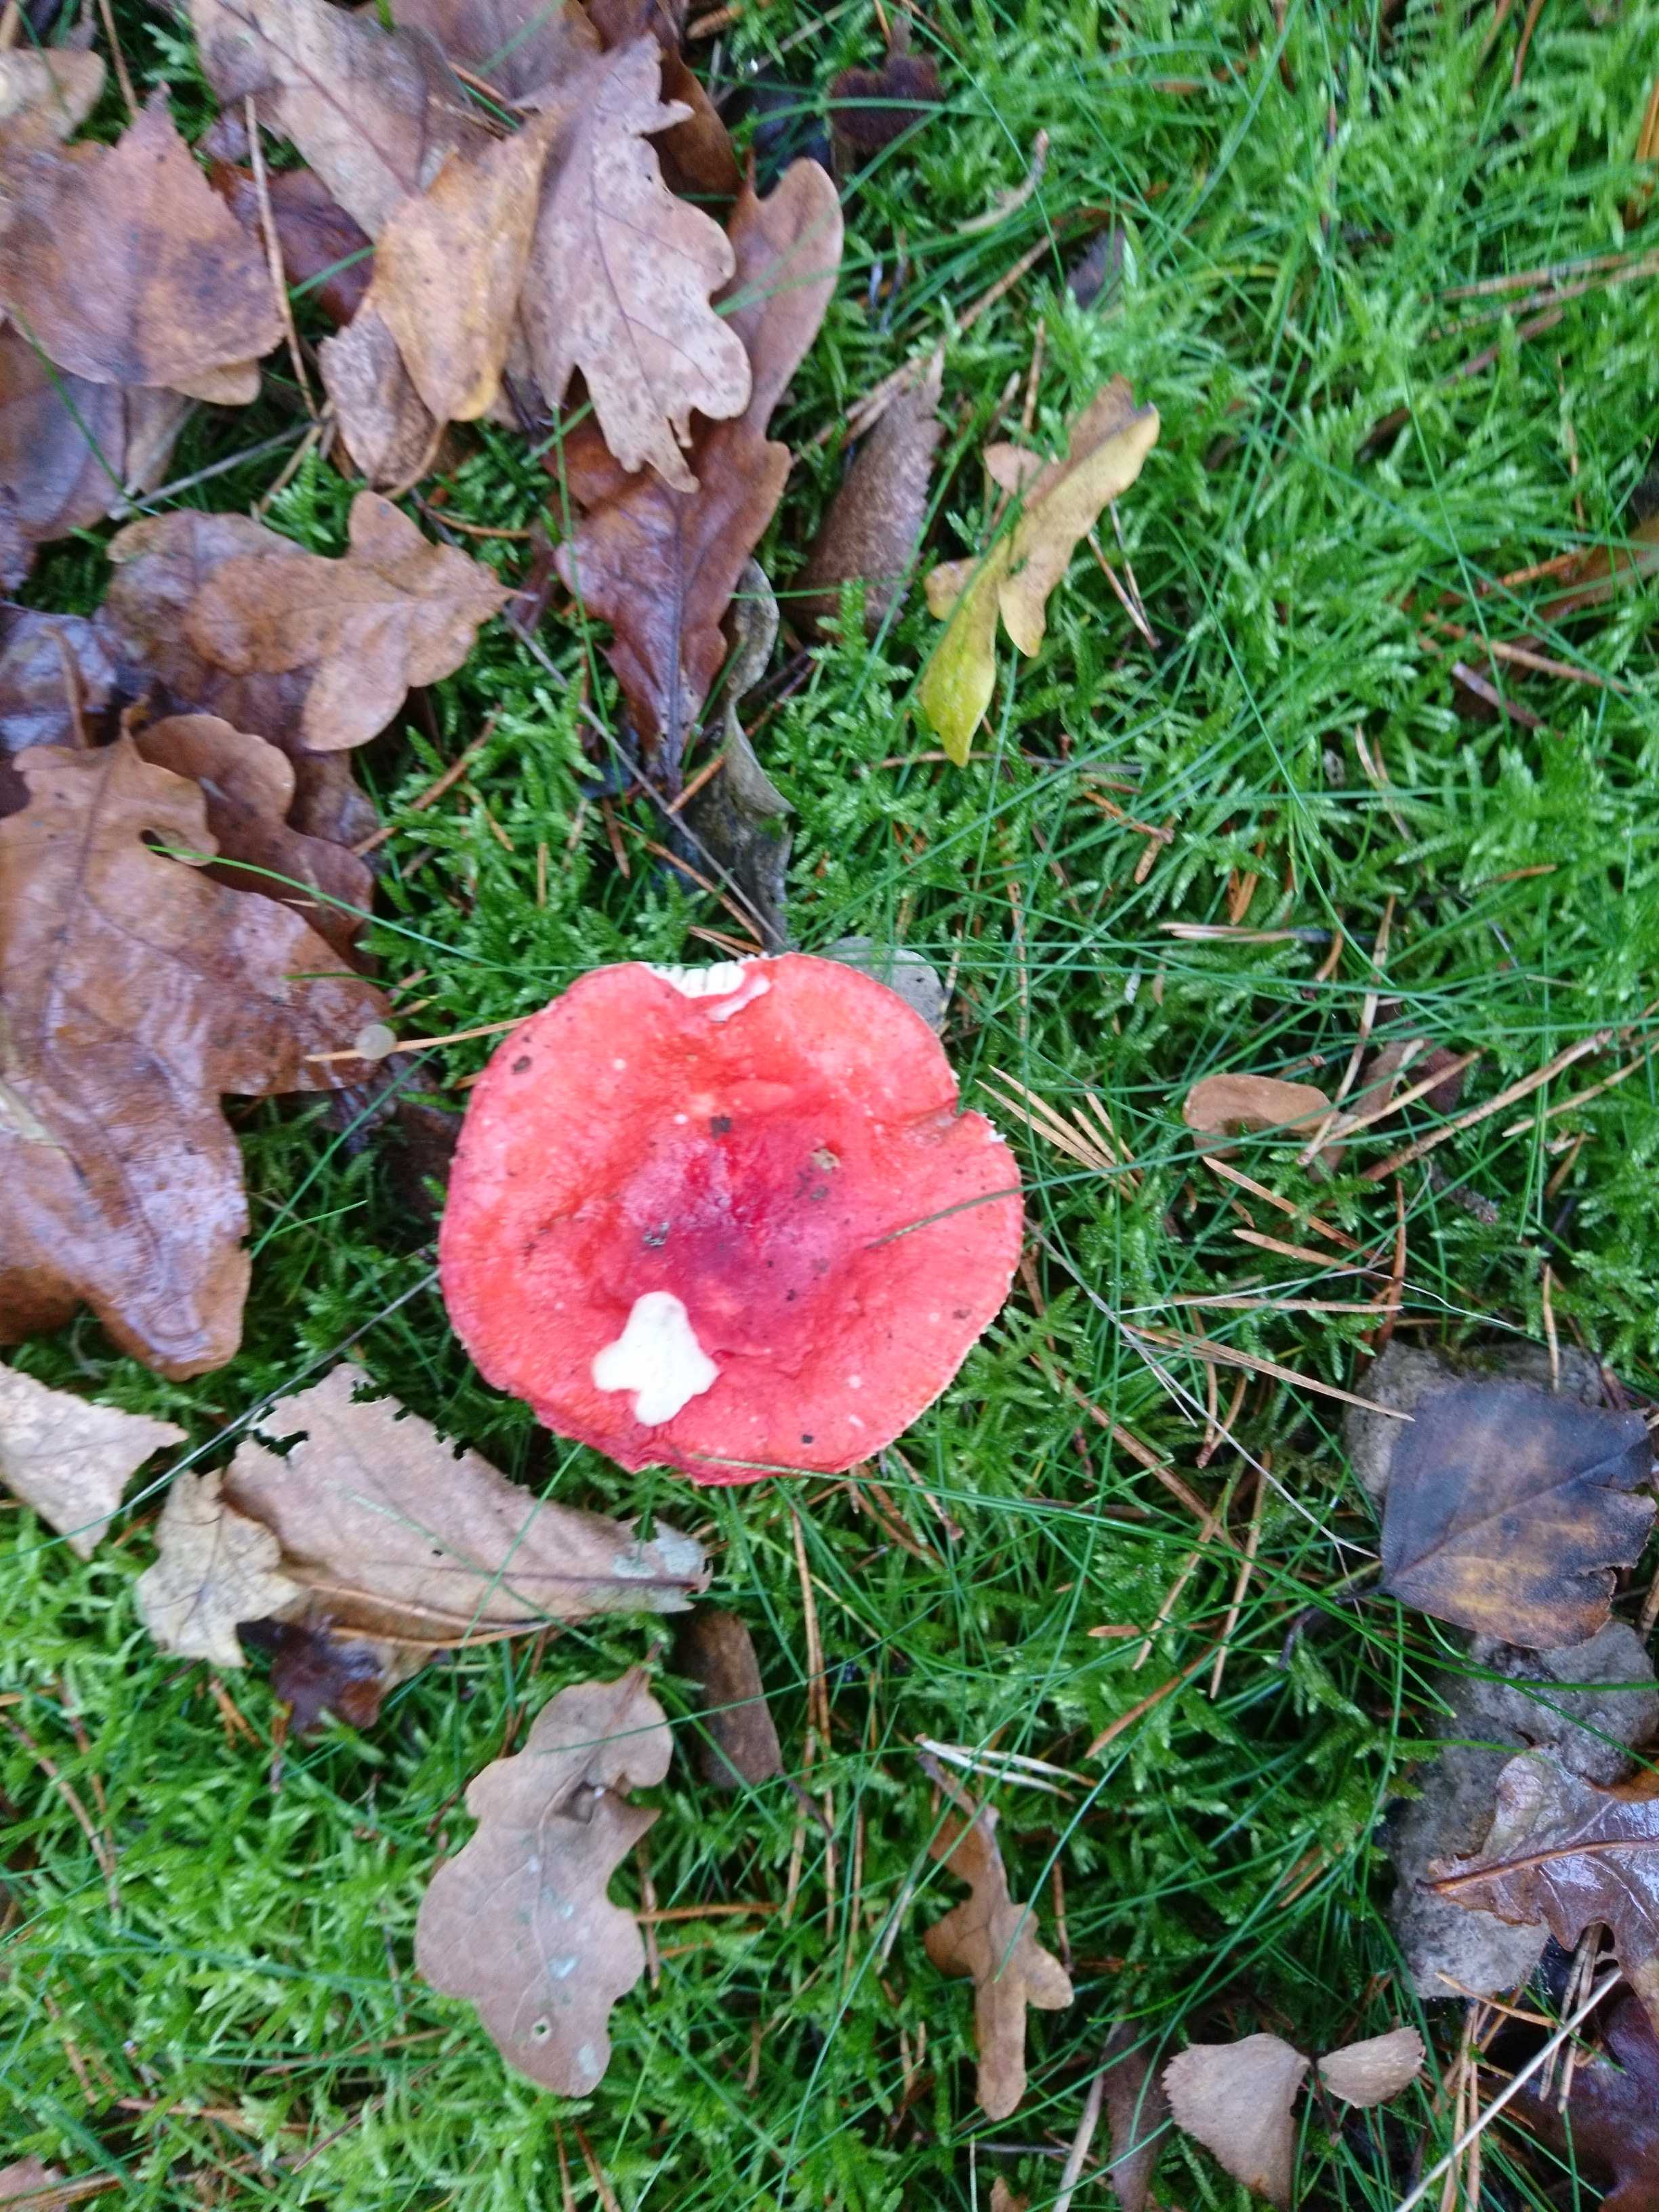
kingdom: Fungi
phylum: Basidiomycota
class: Agaricomycetes
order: Russulales
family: Russulaceae
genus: Russula
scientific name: Russula
